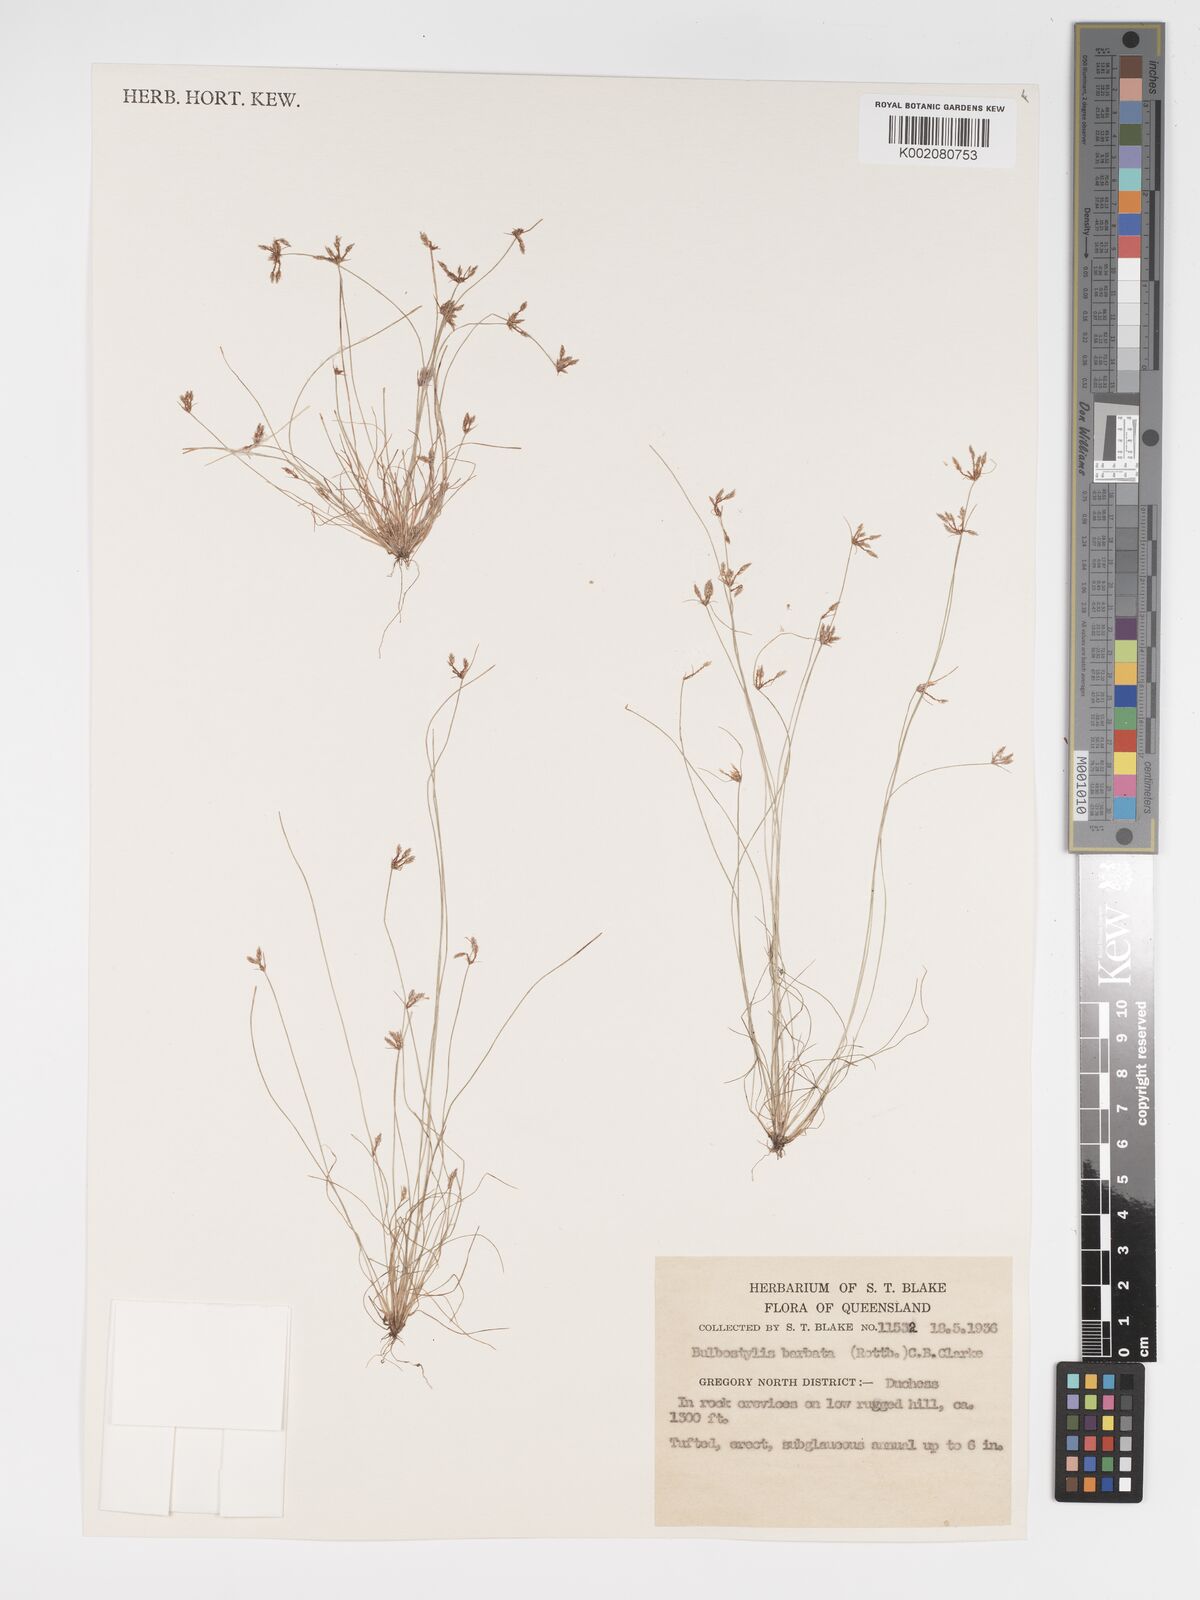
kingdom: Plantae
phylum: Tracheophyta
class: Liliopsida
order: Poales
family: Cyperaceae
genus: Bulbostylis
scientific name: Bulbostylis barbata
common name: Watergrass
